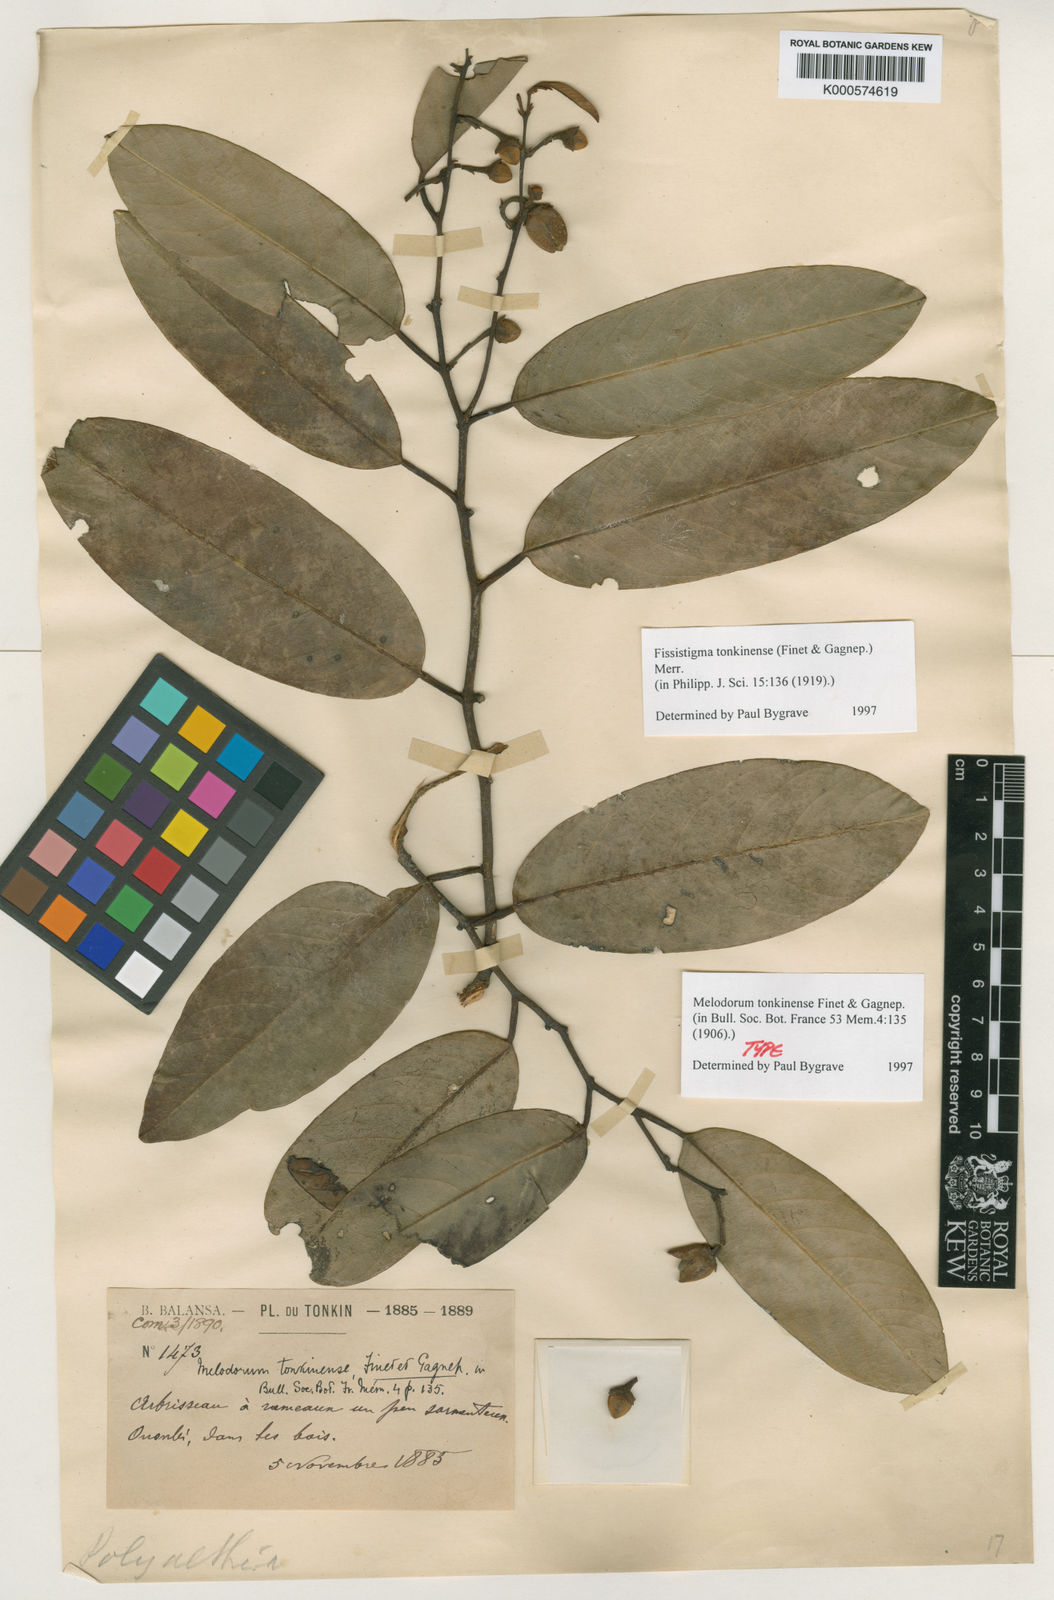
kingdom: Plantae
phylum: Tracheophyta
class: Magnoliopsida
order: Magnoliales
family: Annonaceae
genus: Fissistigma
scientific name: Fissistigma tonkinense
